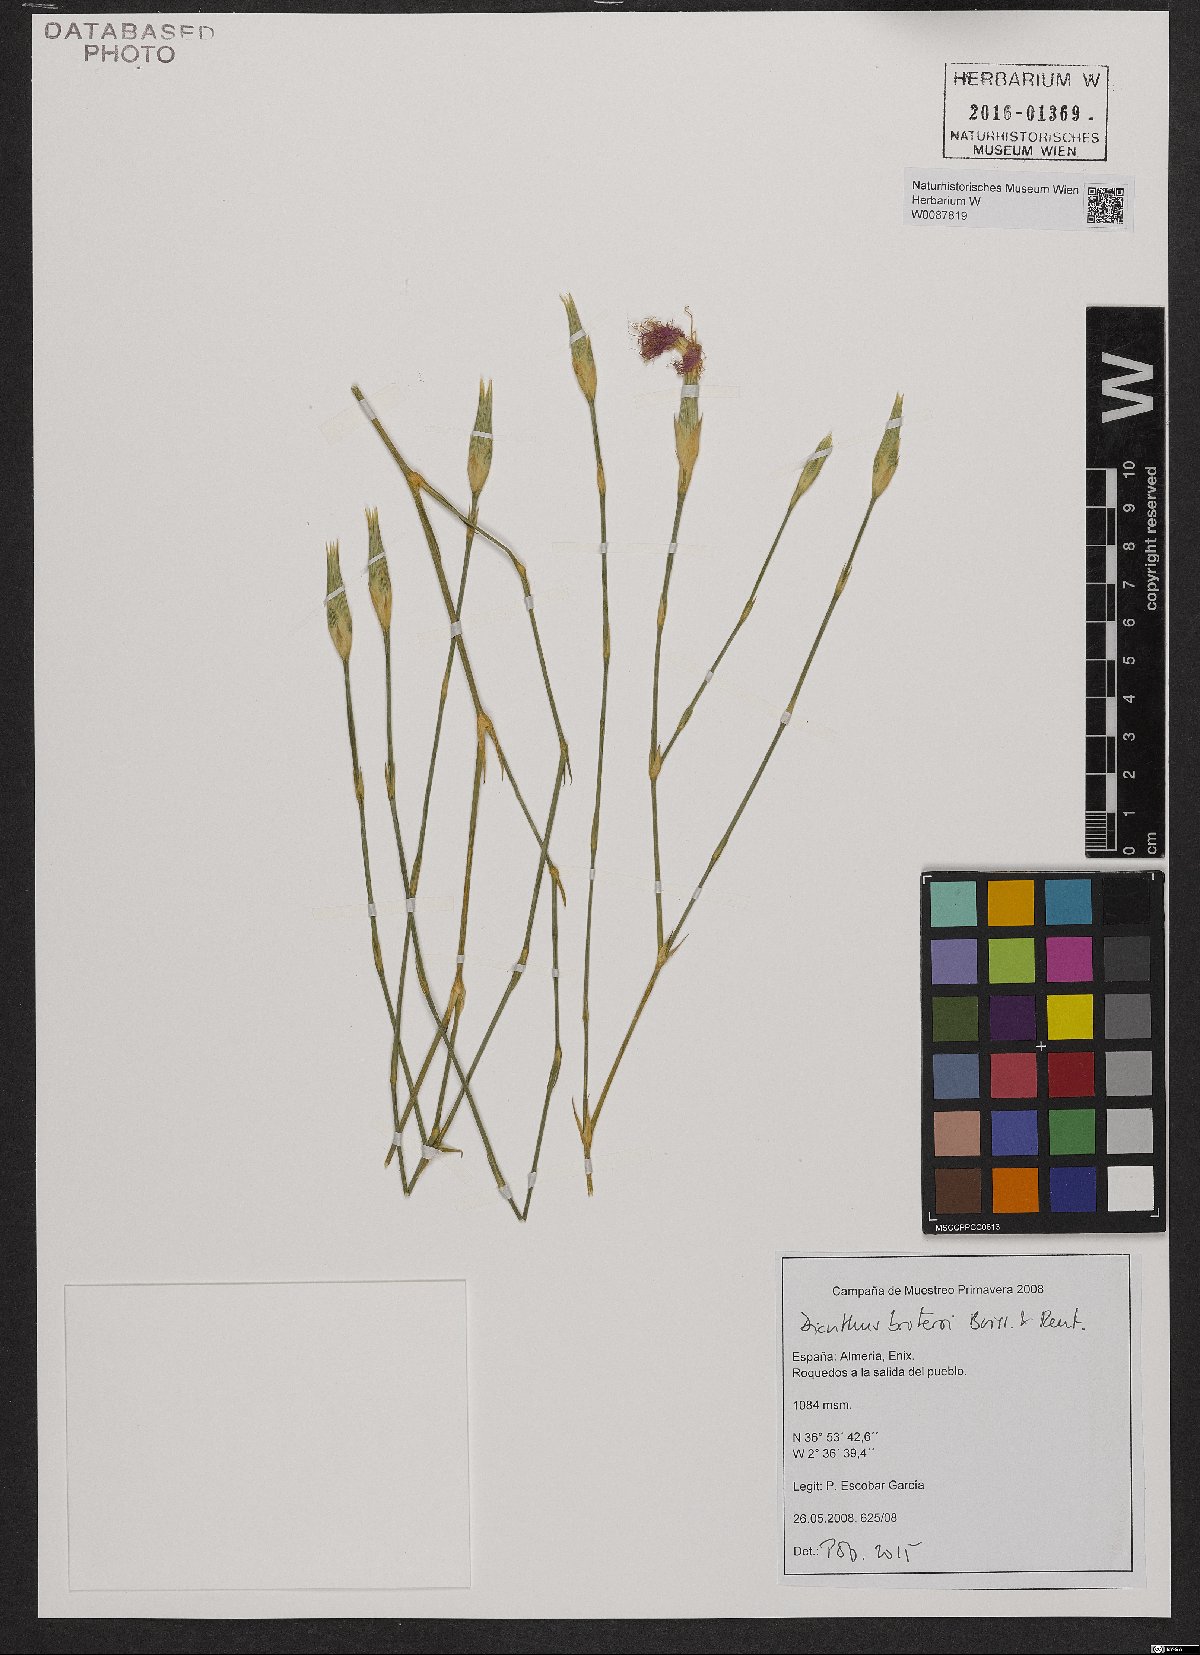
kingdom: Plantae
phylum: Tracheophyta
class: Magnoliopsida
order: Caryophyllales
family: Caryophyllaceae
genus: Dianthus
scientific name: Dianthus broteri
